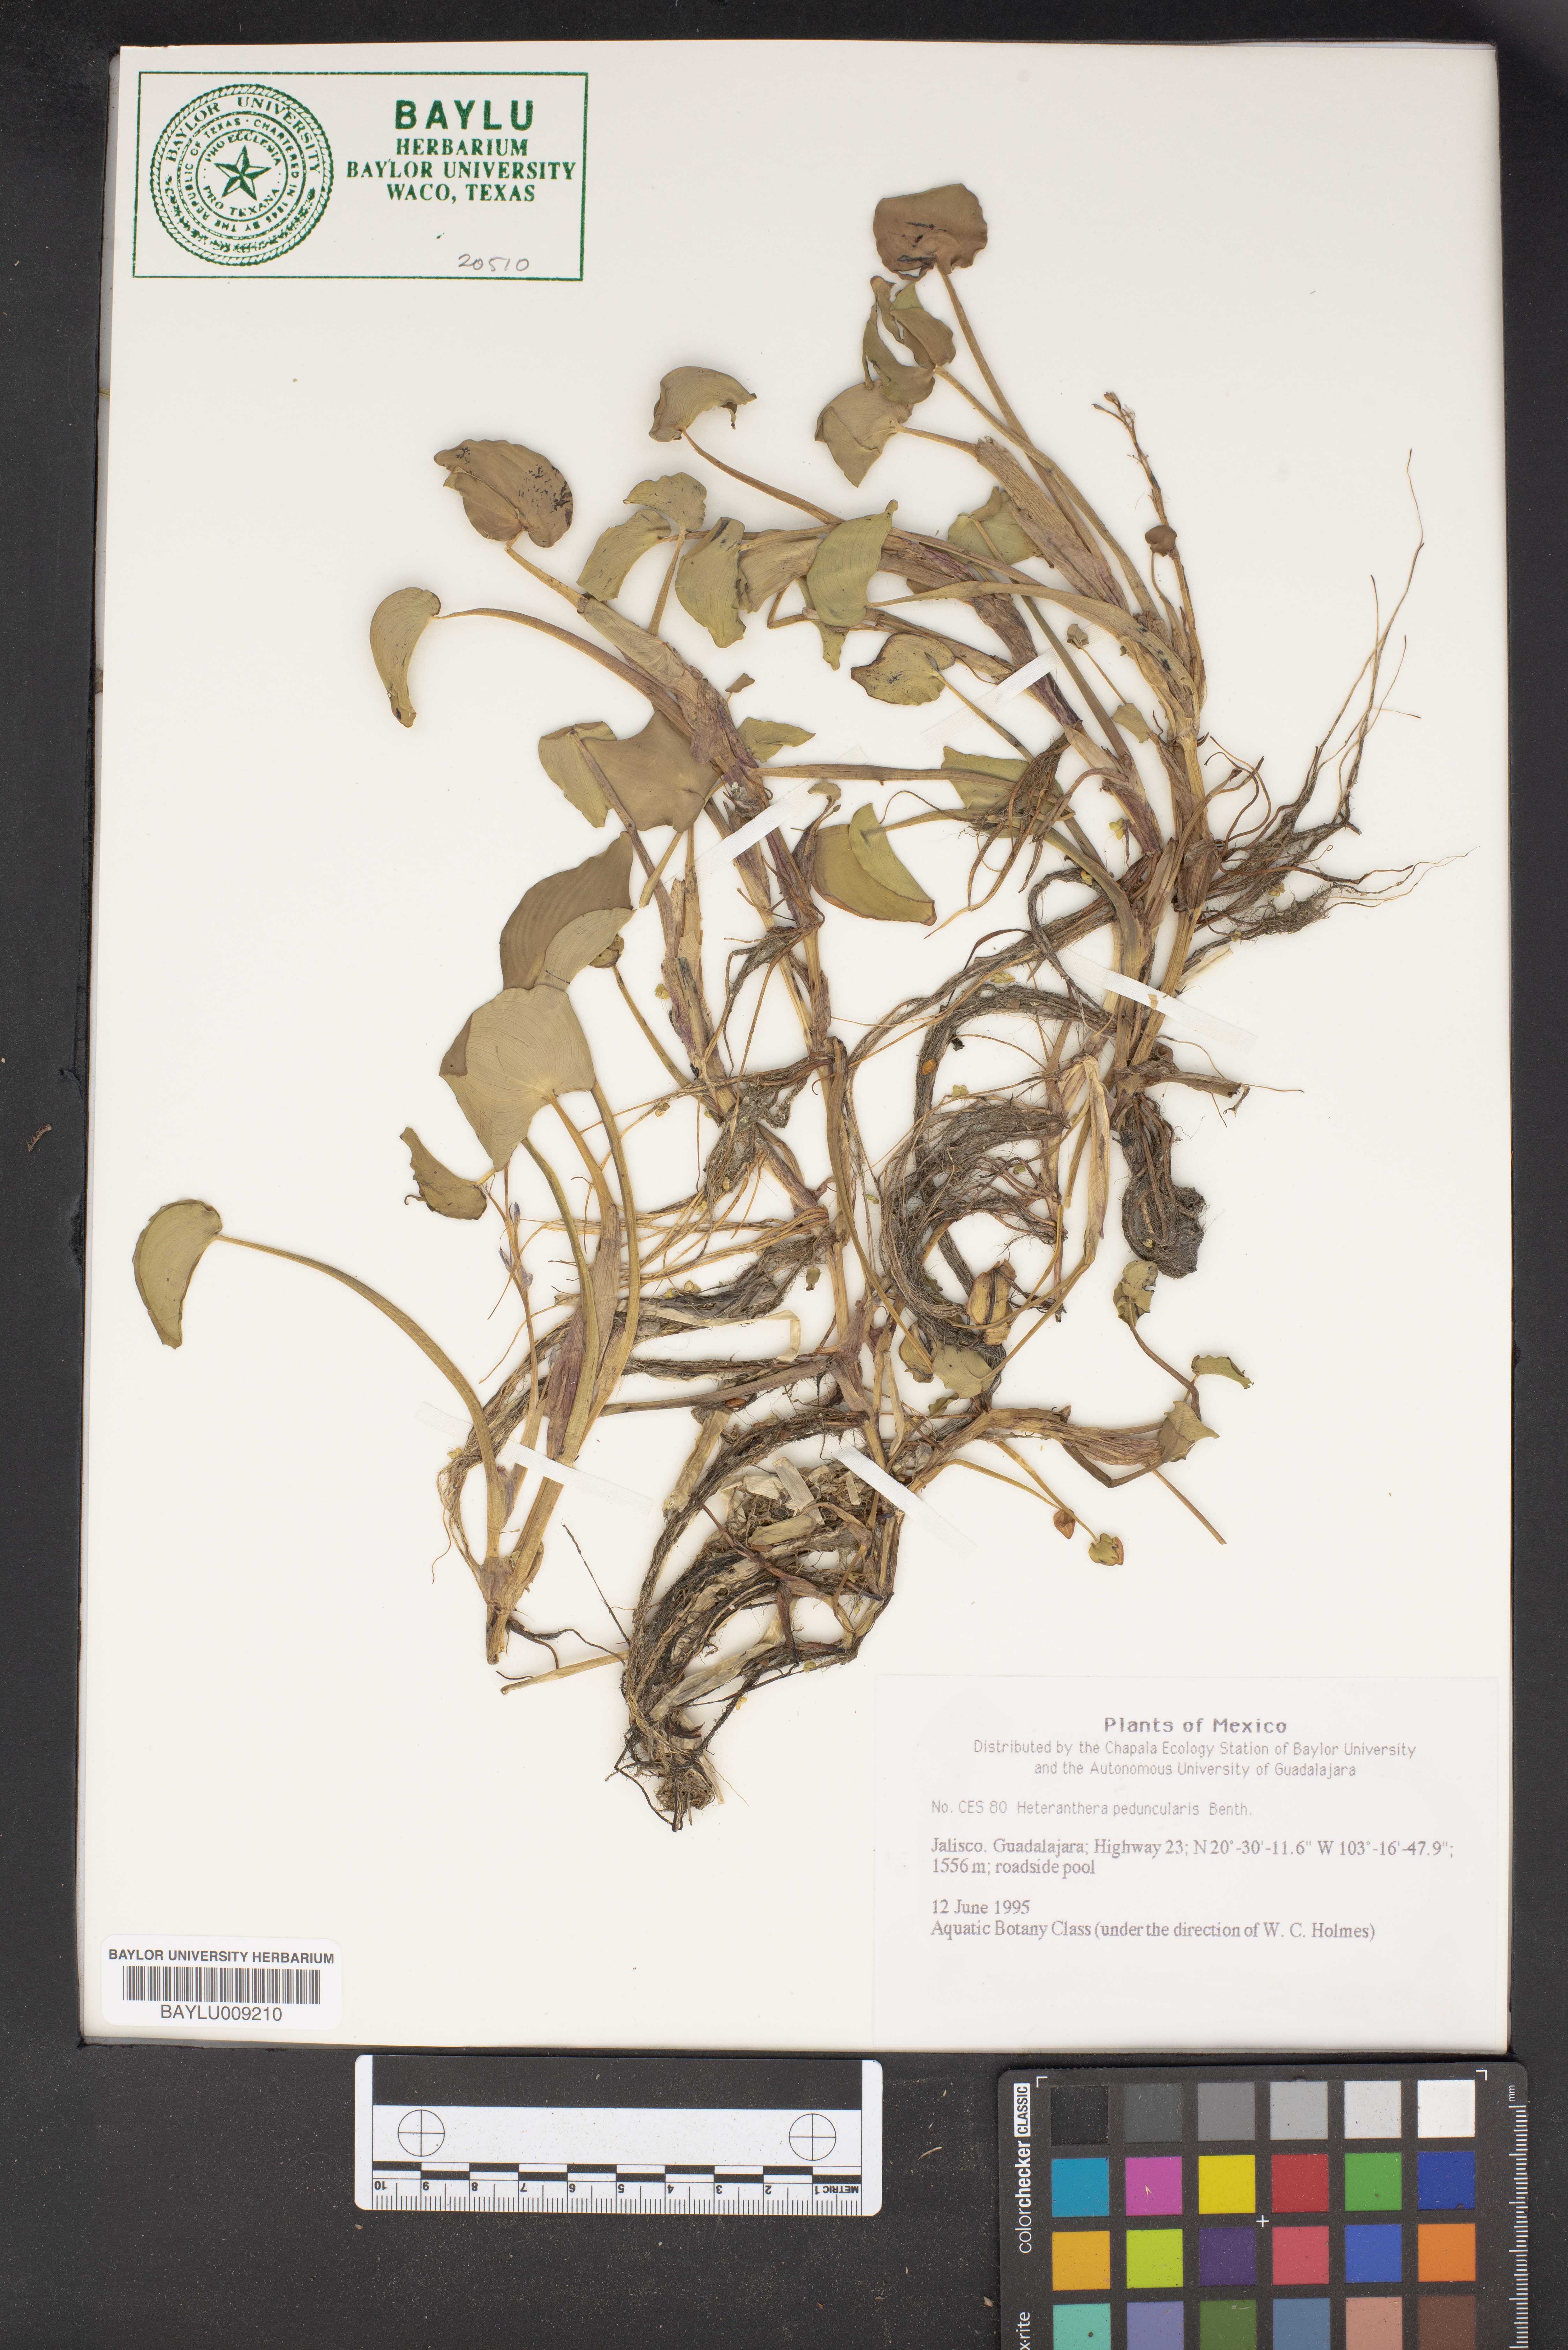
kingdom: Plantae
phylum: Tracheophyta
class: Liliopsida
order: Commelinales
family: Pontederiaceae
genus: Heteranthera
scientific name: Heteranthera peduncularis
